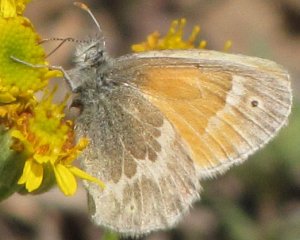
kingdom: Animalia
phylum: Arthropoda
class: Insecta
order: Lepidoptera
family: Nymphalidae
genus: Coenonympha
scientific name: Coenonympha tullia
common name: Large Heath
